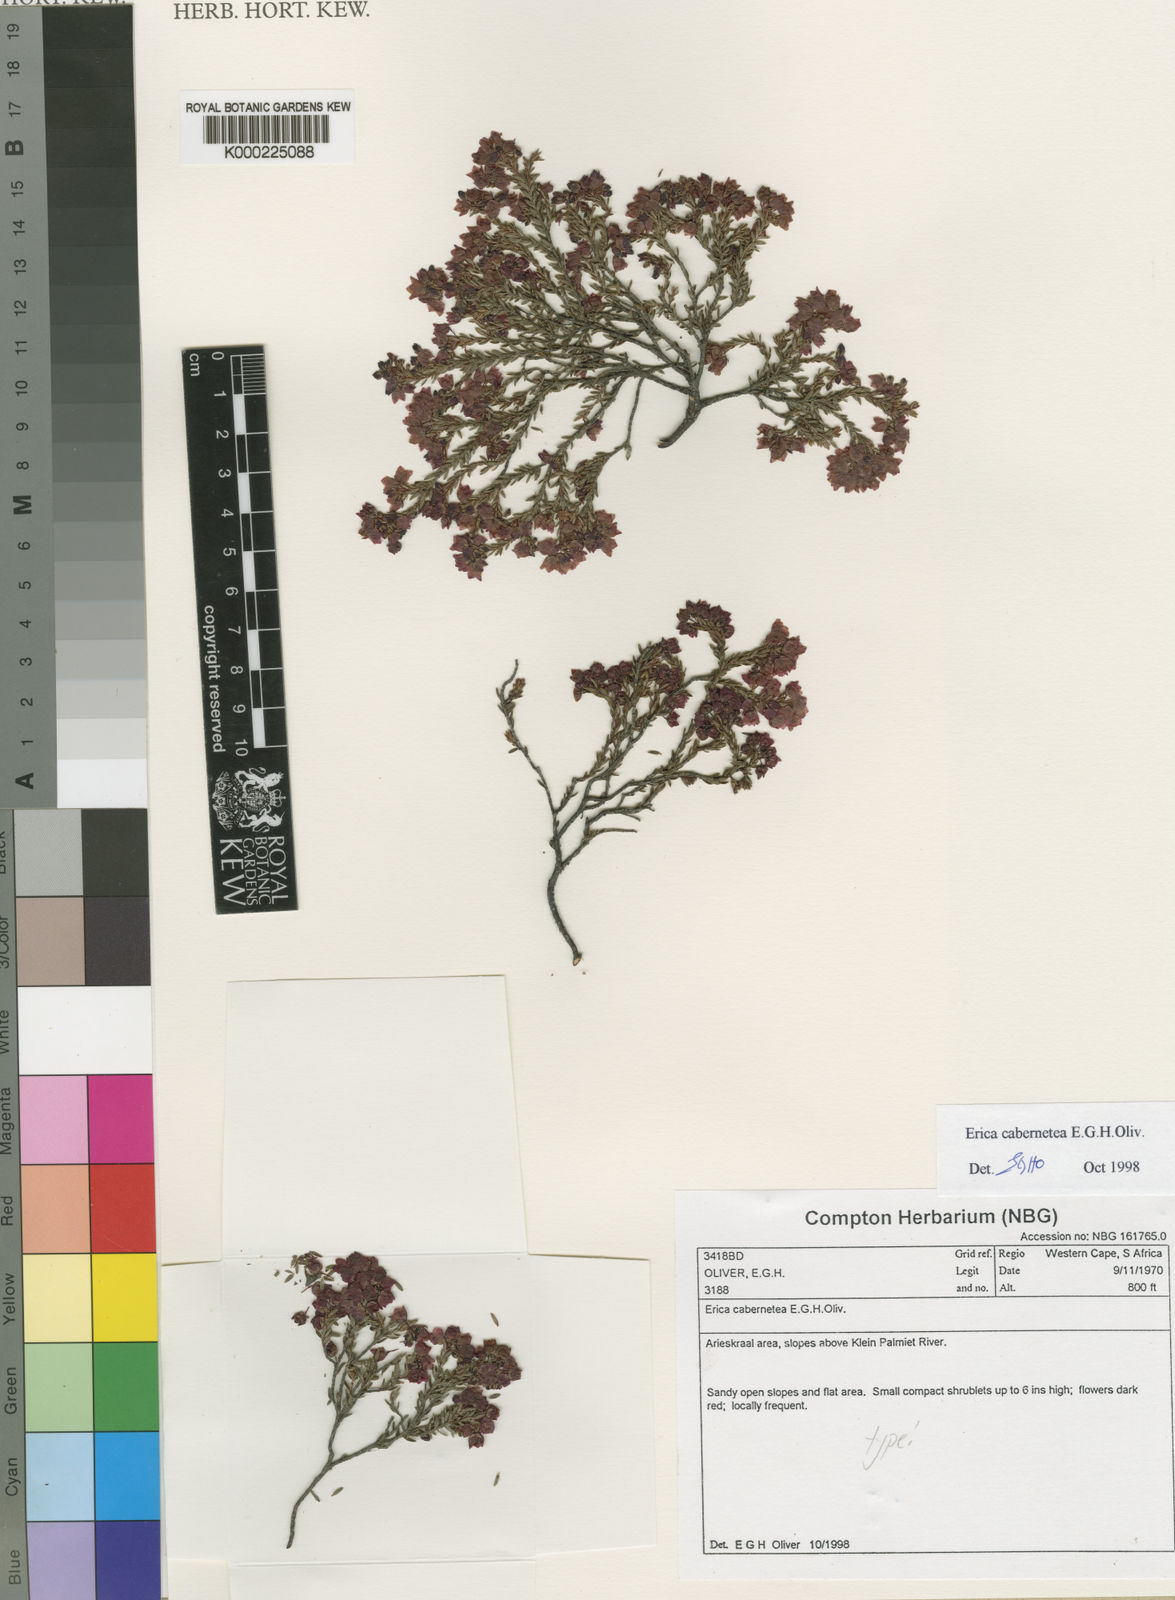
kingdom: Plantae
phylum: Tracheophyta
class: Magnoliopsida
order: Ericales
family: Ericaceae
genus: Erica
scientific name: Erica cabernetea
